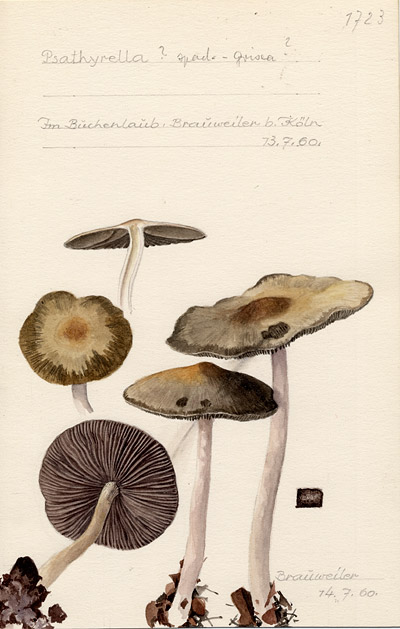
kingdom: Fungi
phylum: Basidiomycota
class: Agaricomycetes
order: Agaricales
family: Psathyrellaceae
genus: Psathyrella
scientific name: Psathyrella spadiceogrisea
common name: Spring brittlestem
